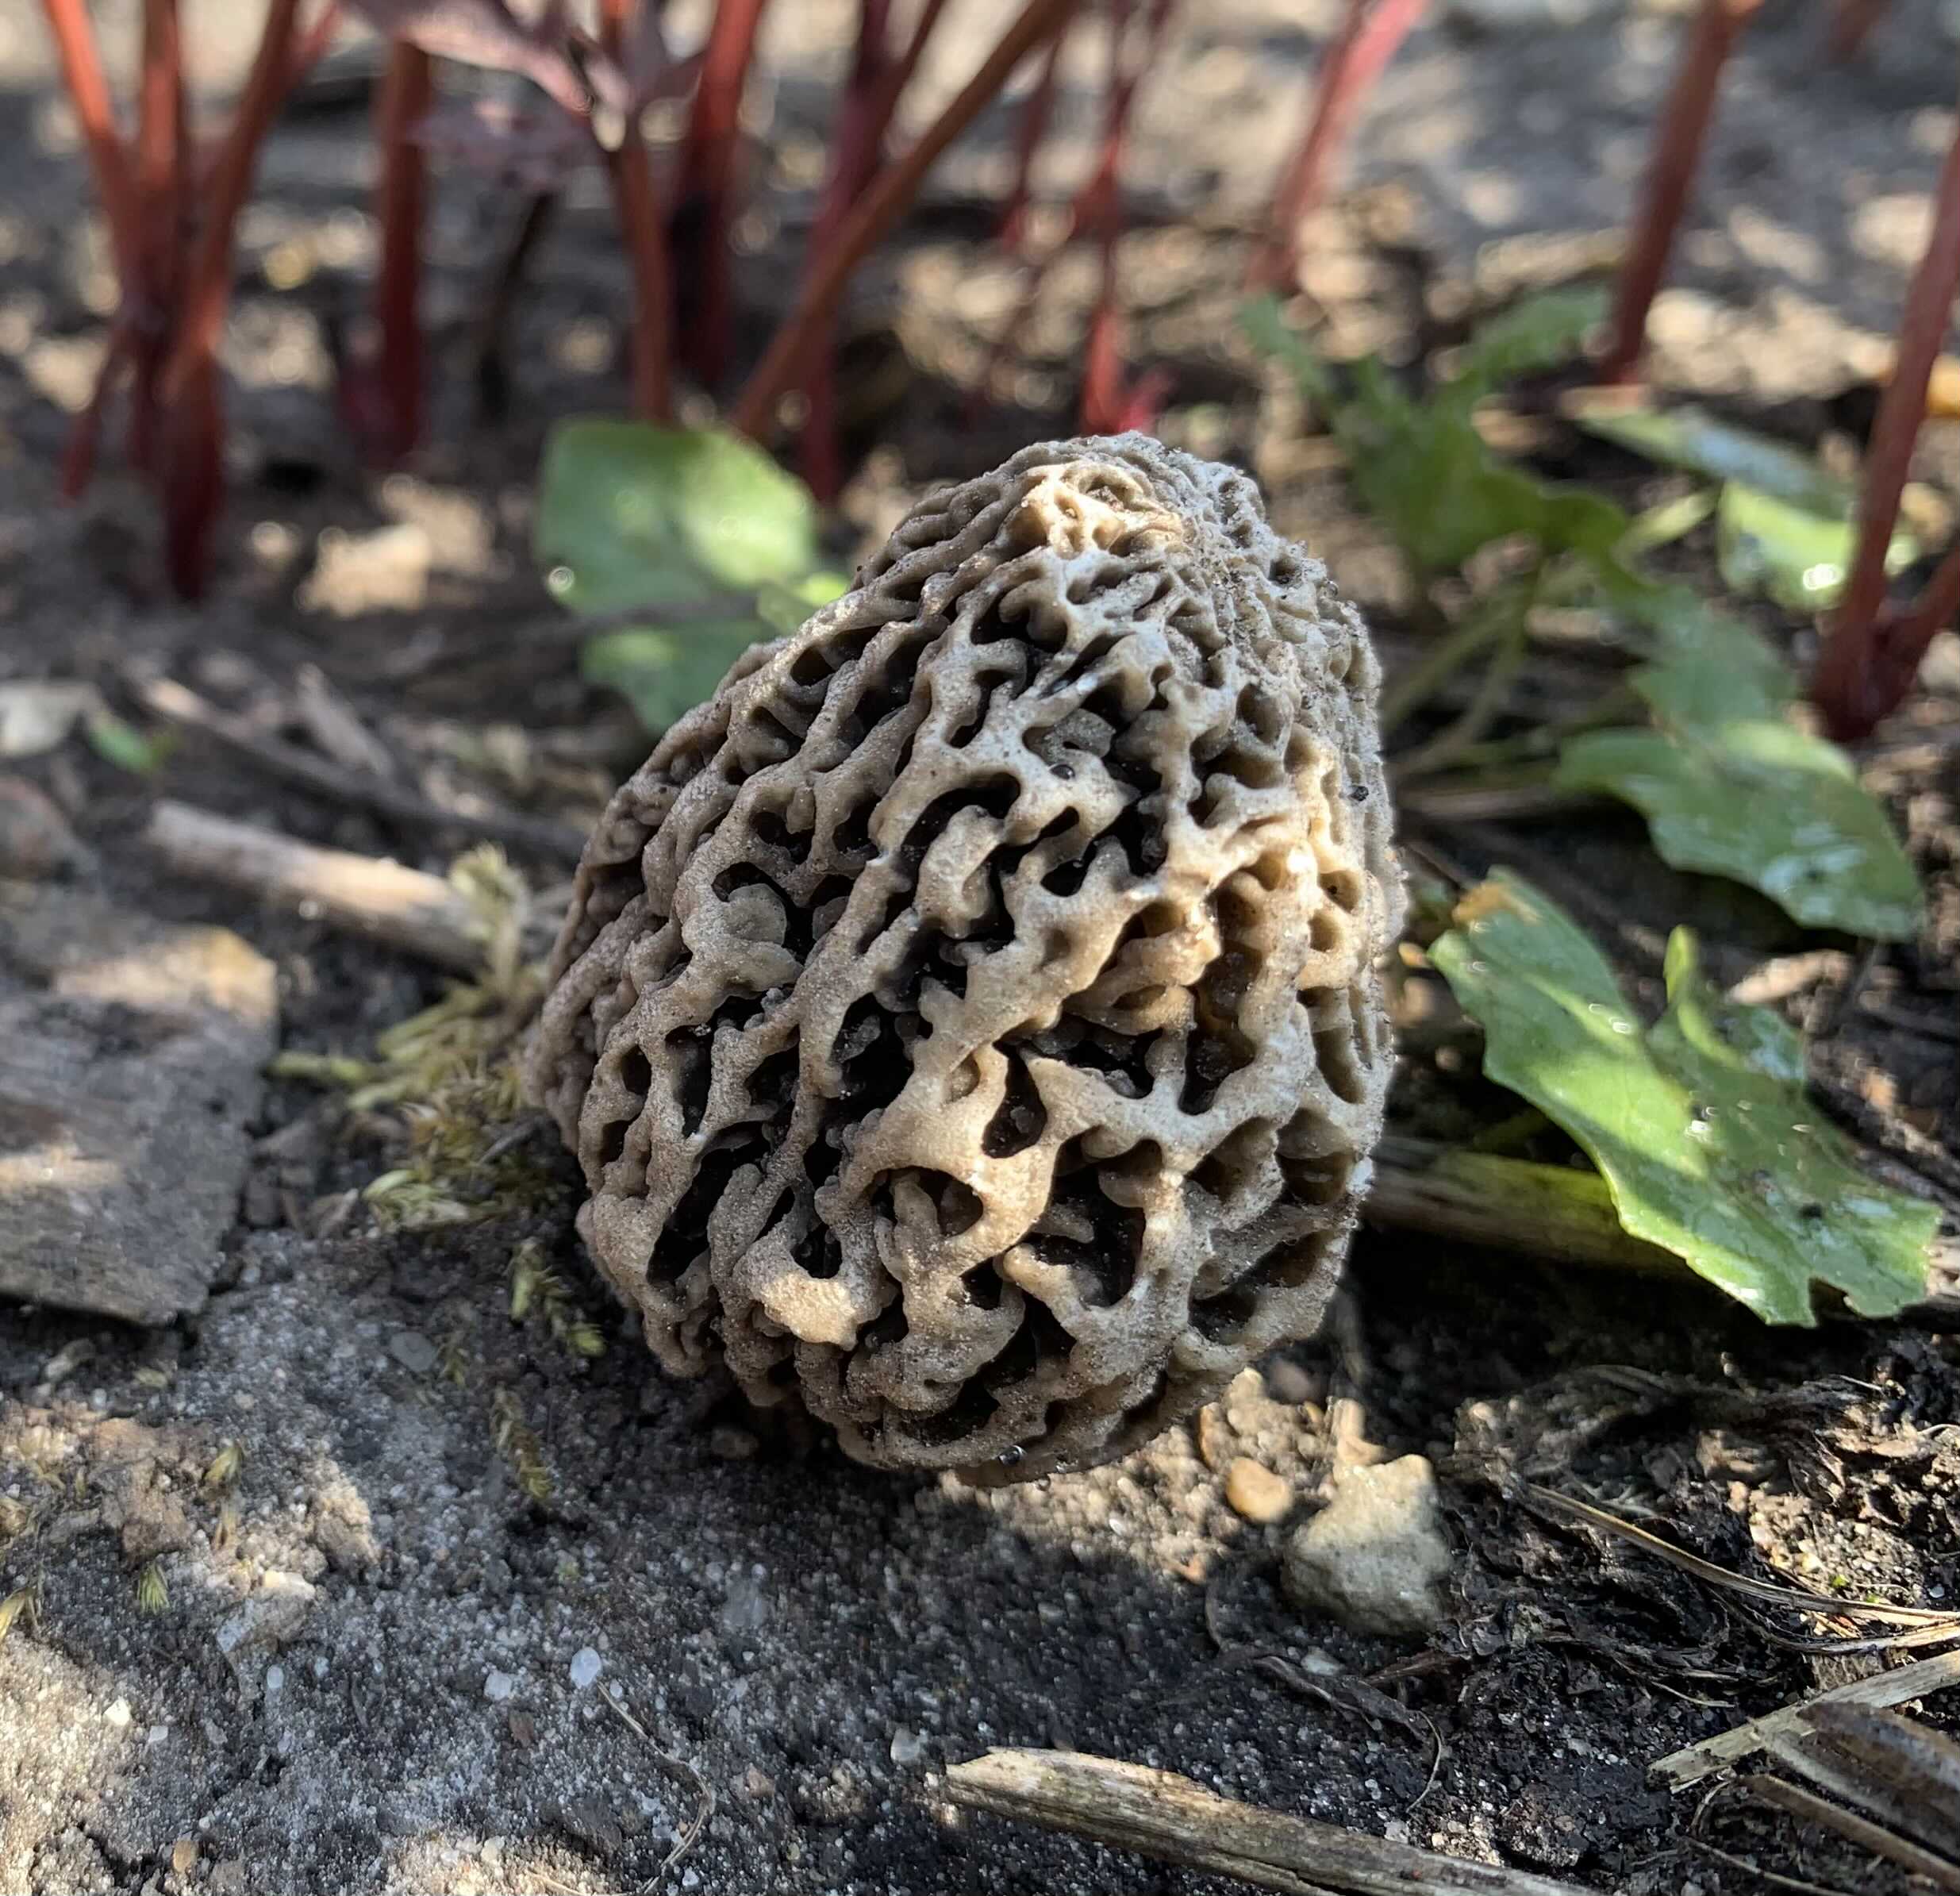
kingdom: Fungi
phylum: Ascomycota
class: Pezizomycetes
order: Pezizales
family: Morchellaceae
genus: Morchella
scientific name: Morchella esculenta
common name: almindelig morkel
